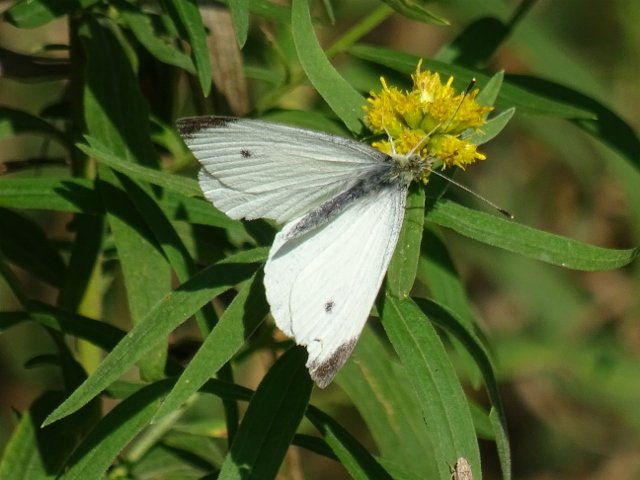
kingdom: Animalia
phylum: Arthropoda
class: Insecta
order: Lepidoptera
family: Pieridae
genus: Pieris
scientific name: Pieris rapae
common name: Cabbage White
